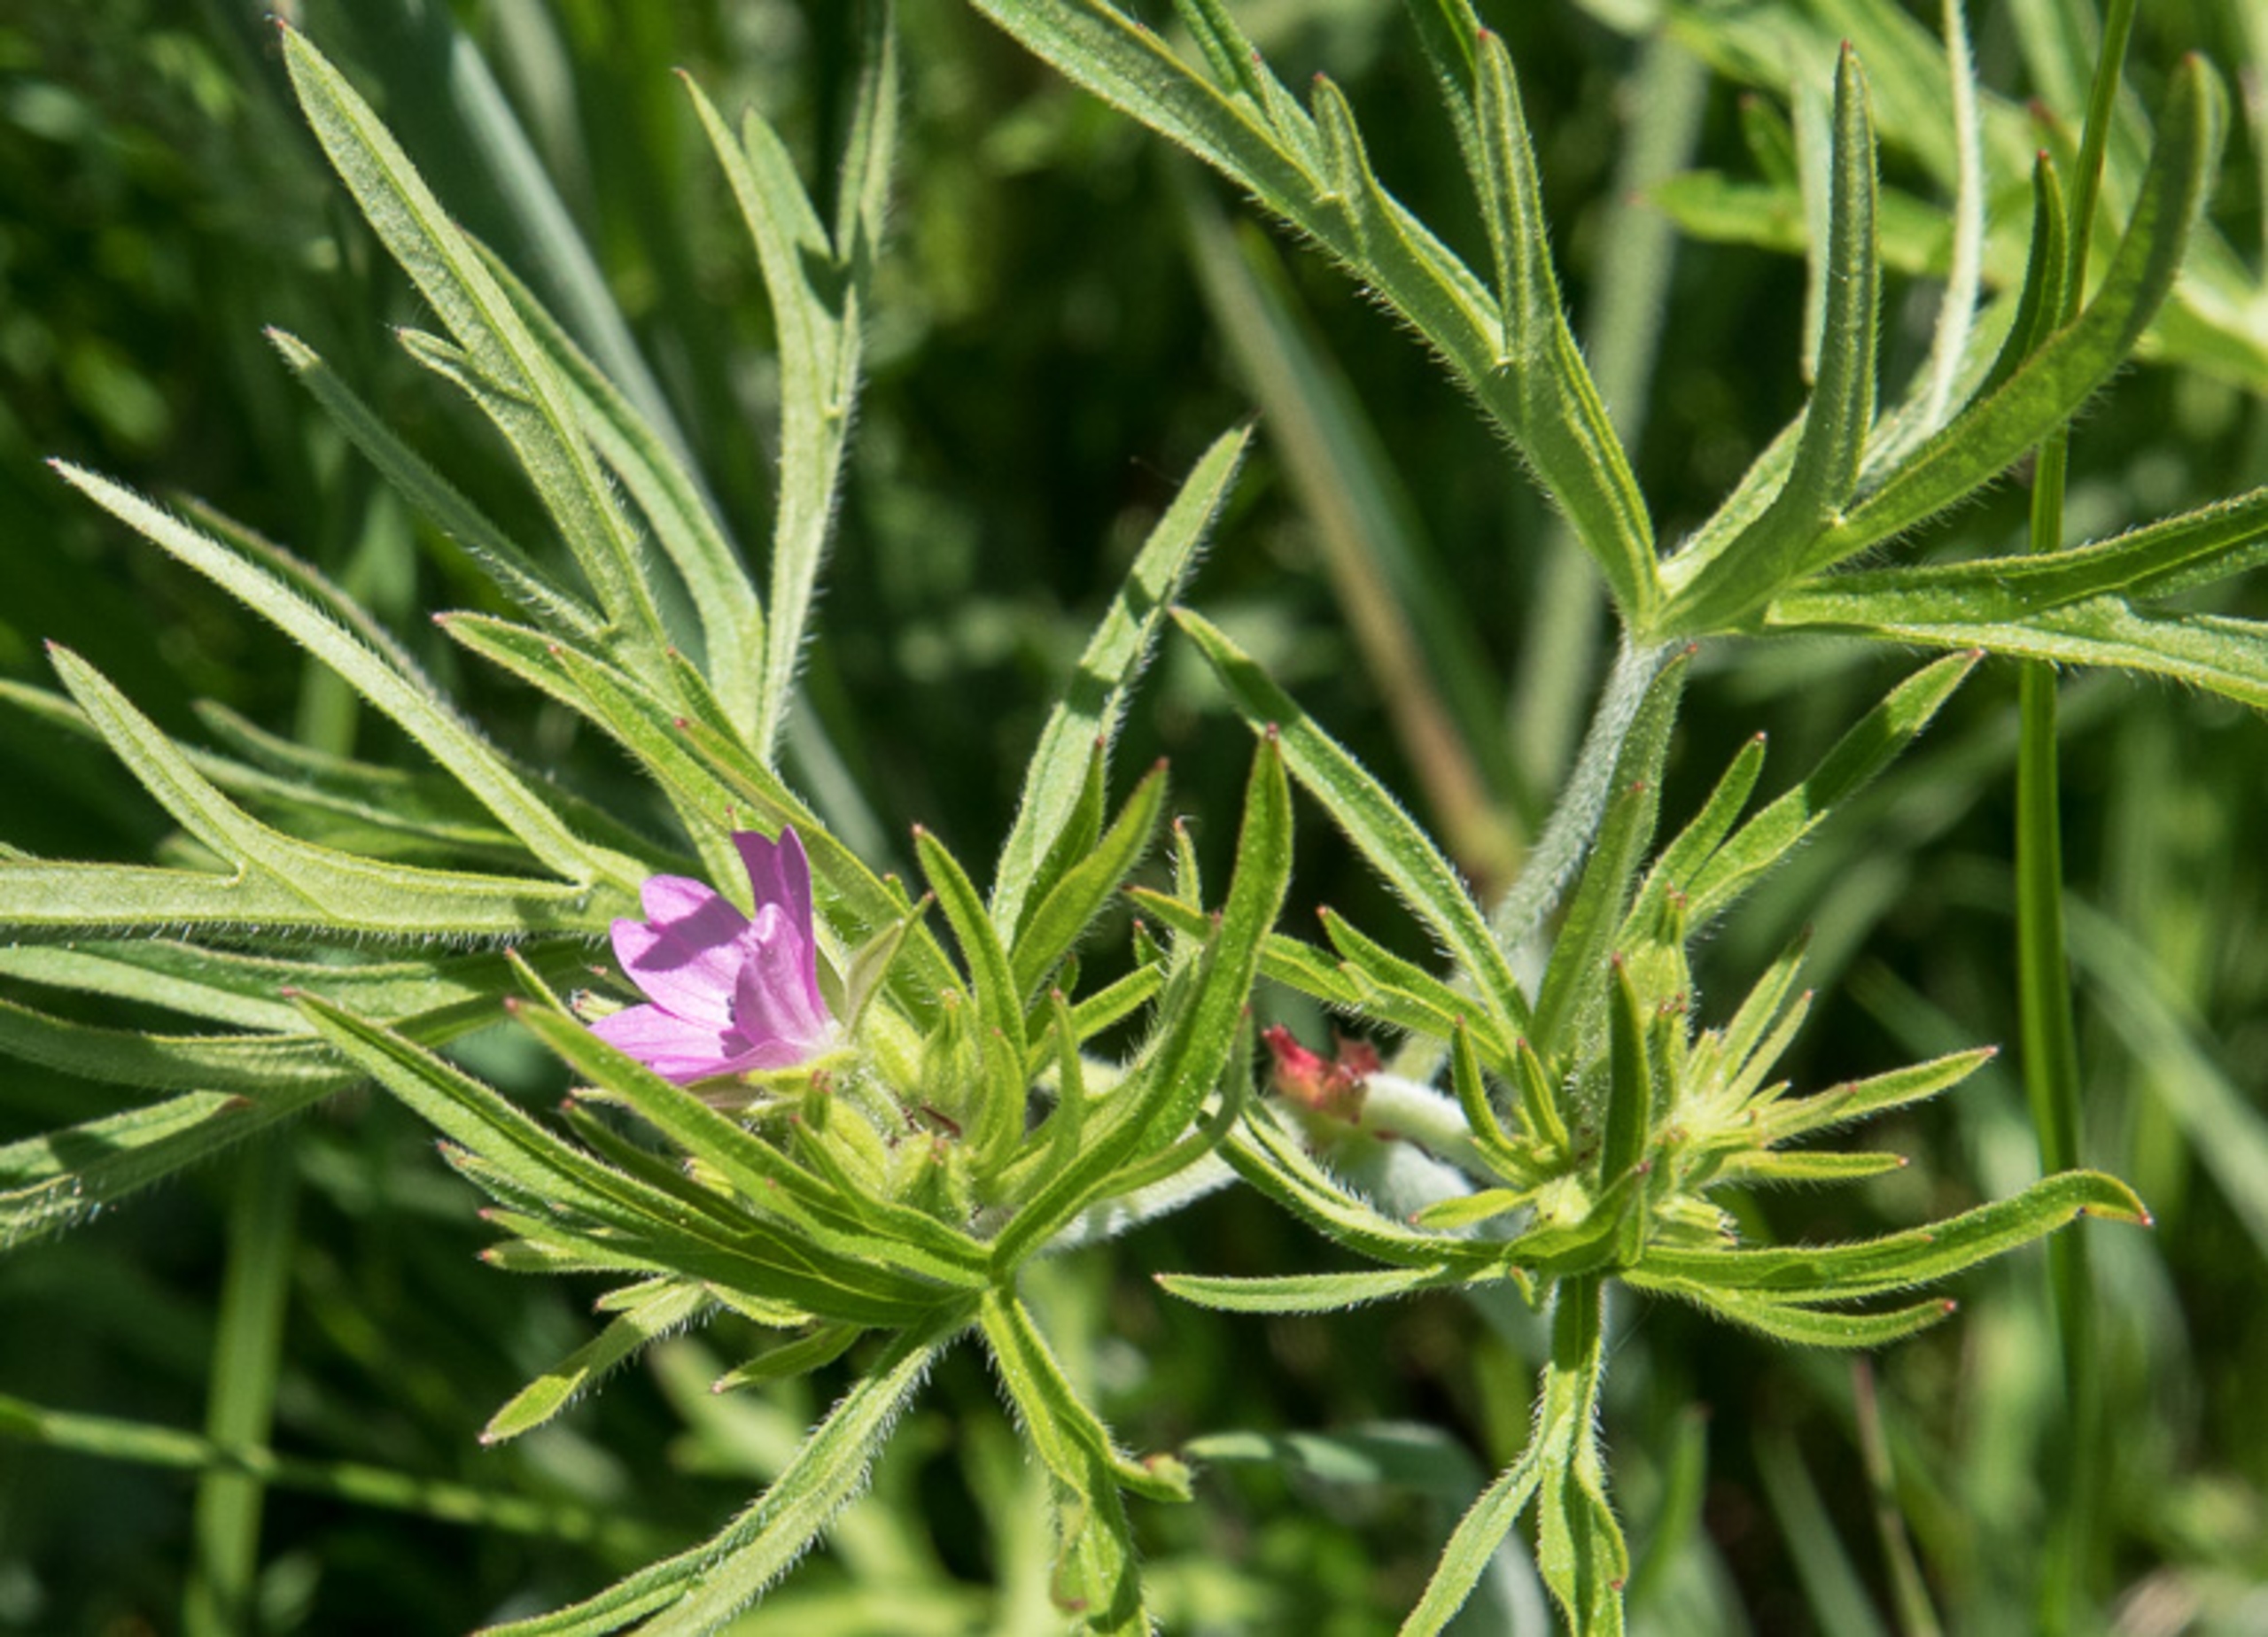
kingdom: Plantae
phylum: Tracheophyta
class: Magnoliopsida
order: Geraniales
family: Geraniaceae
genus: Geranium
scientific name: Geranium dissectum
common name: Kløftet storkenæb
